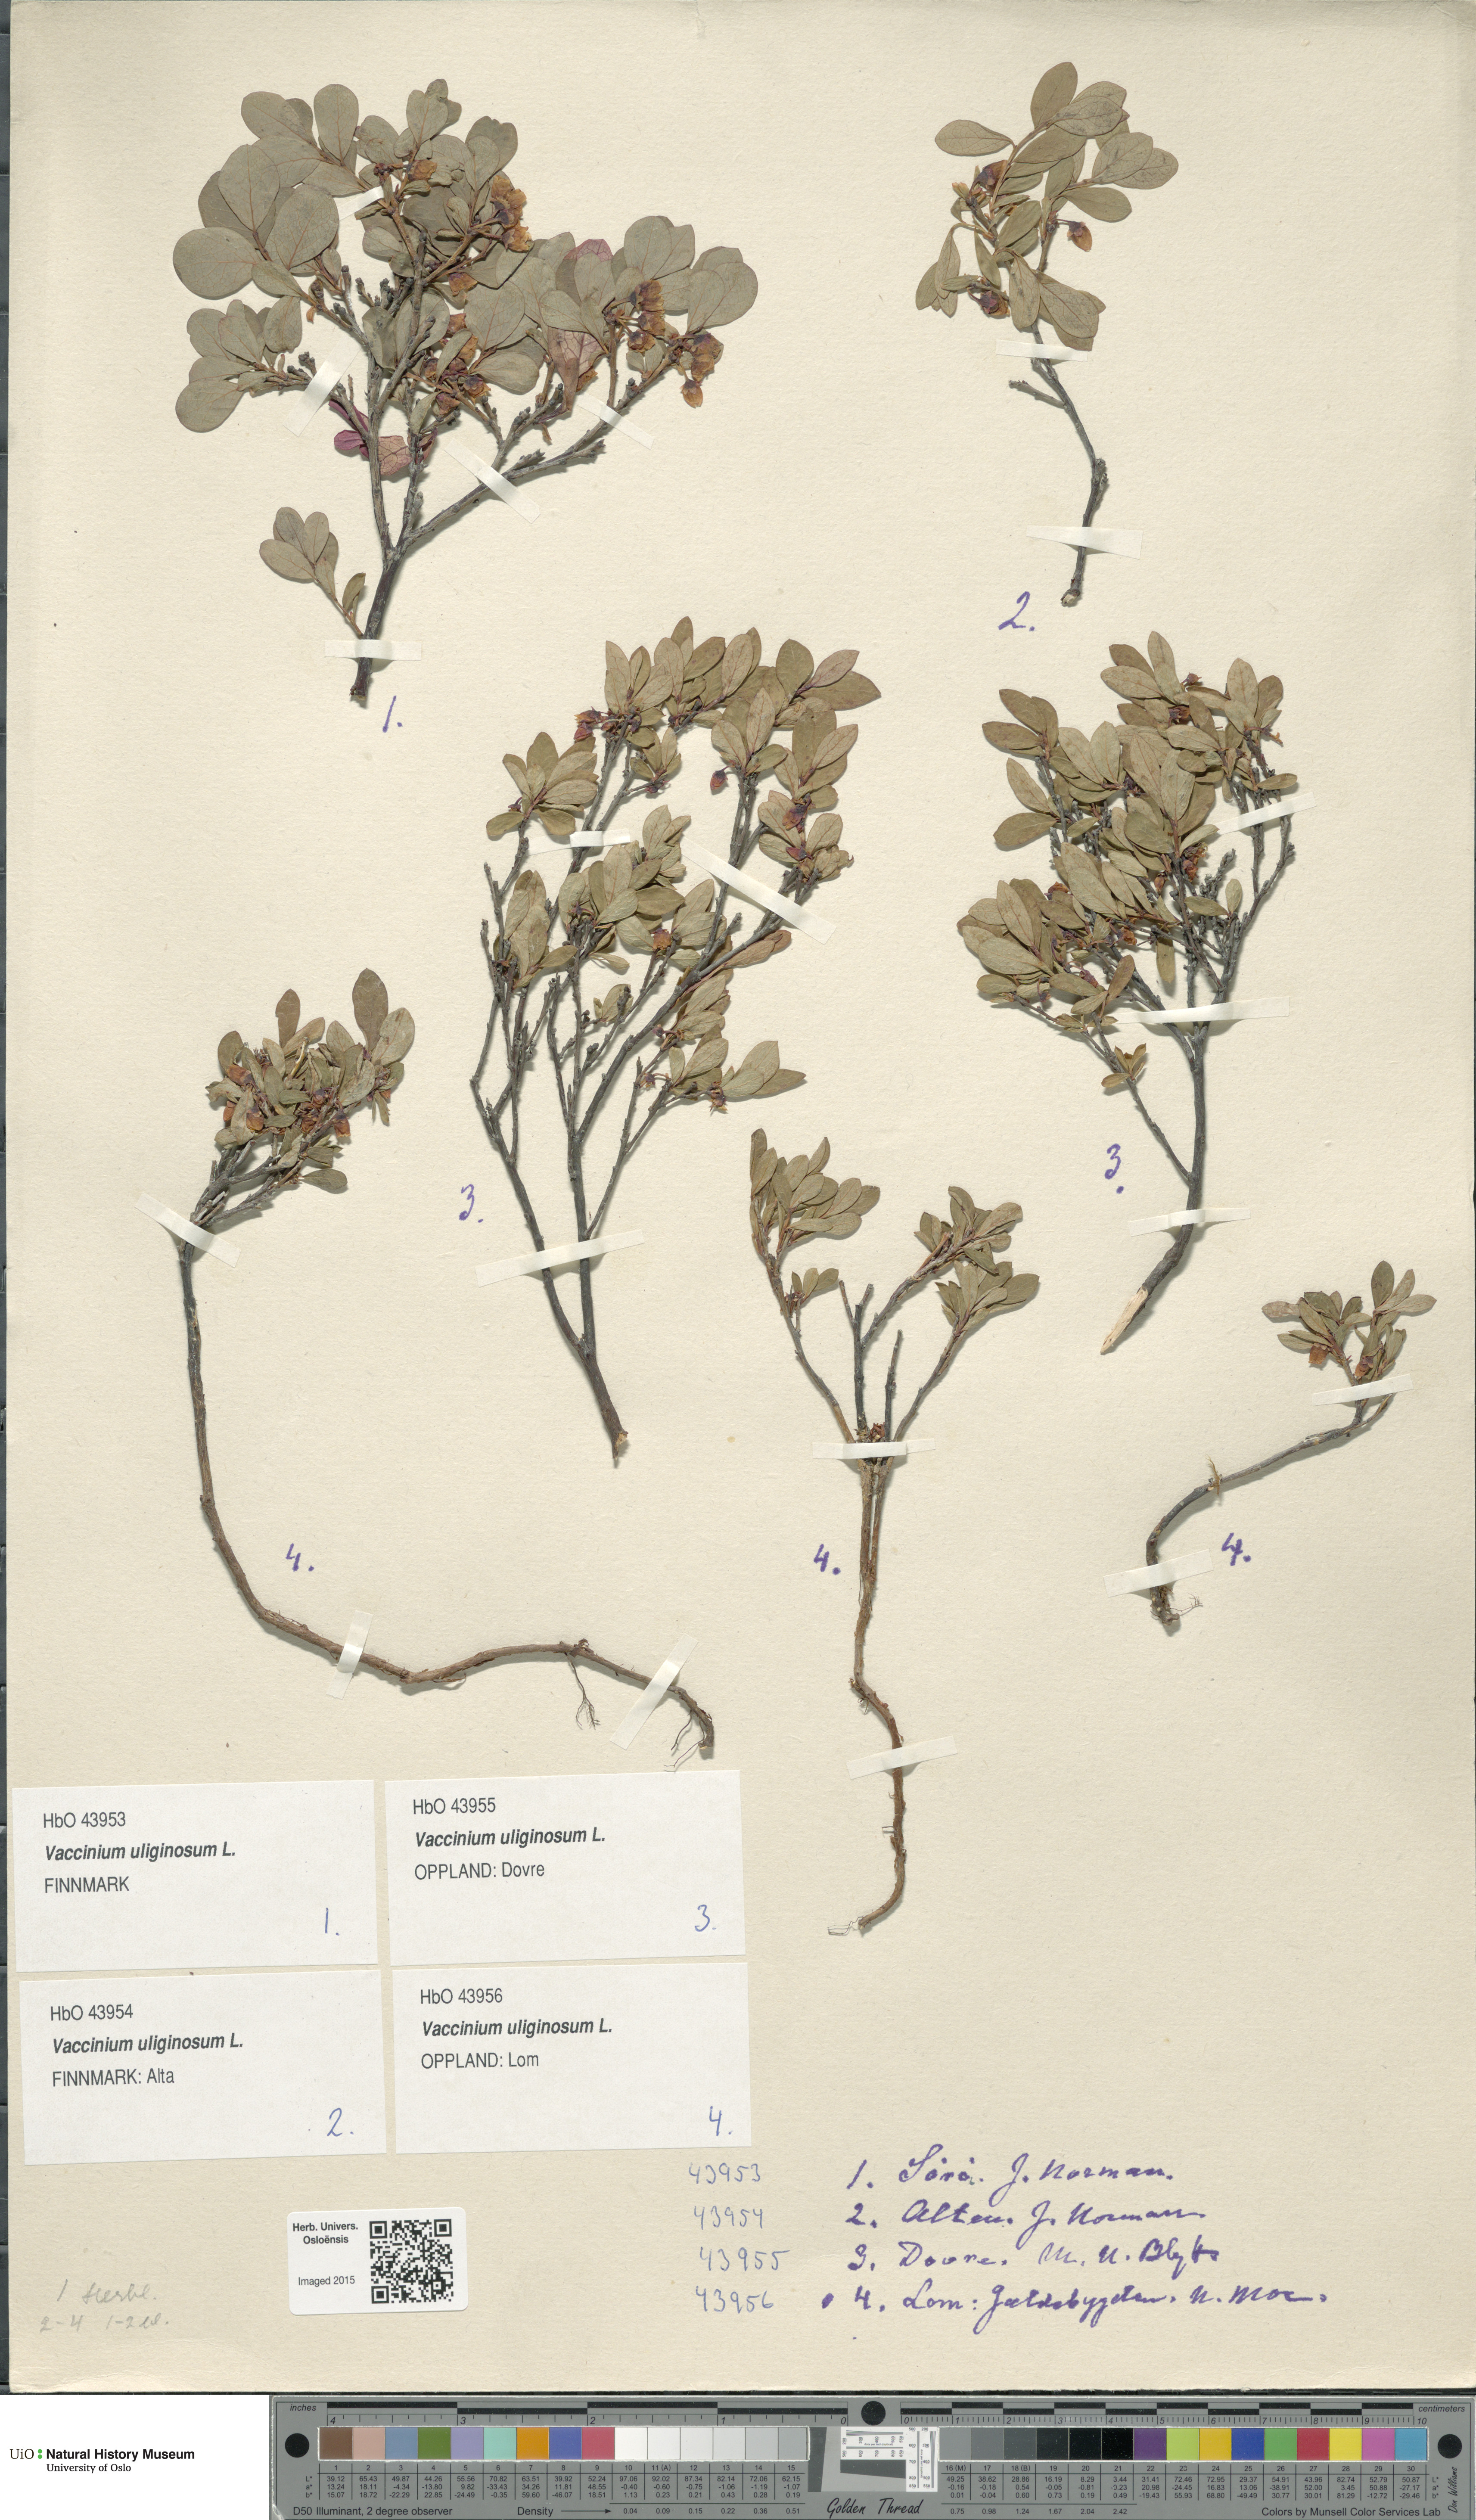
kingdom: Plantae
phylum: Tracheophyta
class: Magnoliopsida
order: Ericales
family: Ericaceae
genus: Vaccinium
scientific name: Vaccinium uliginosum
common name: Bog bilberry
